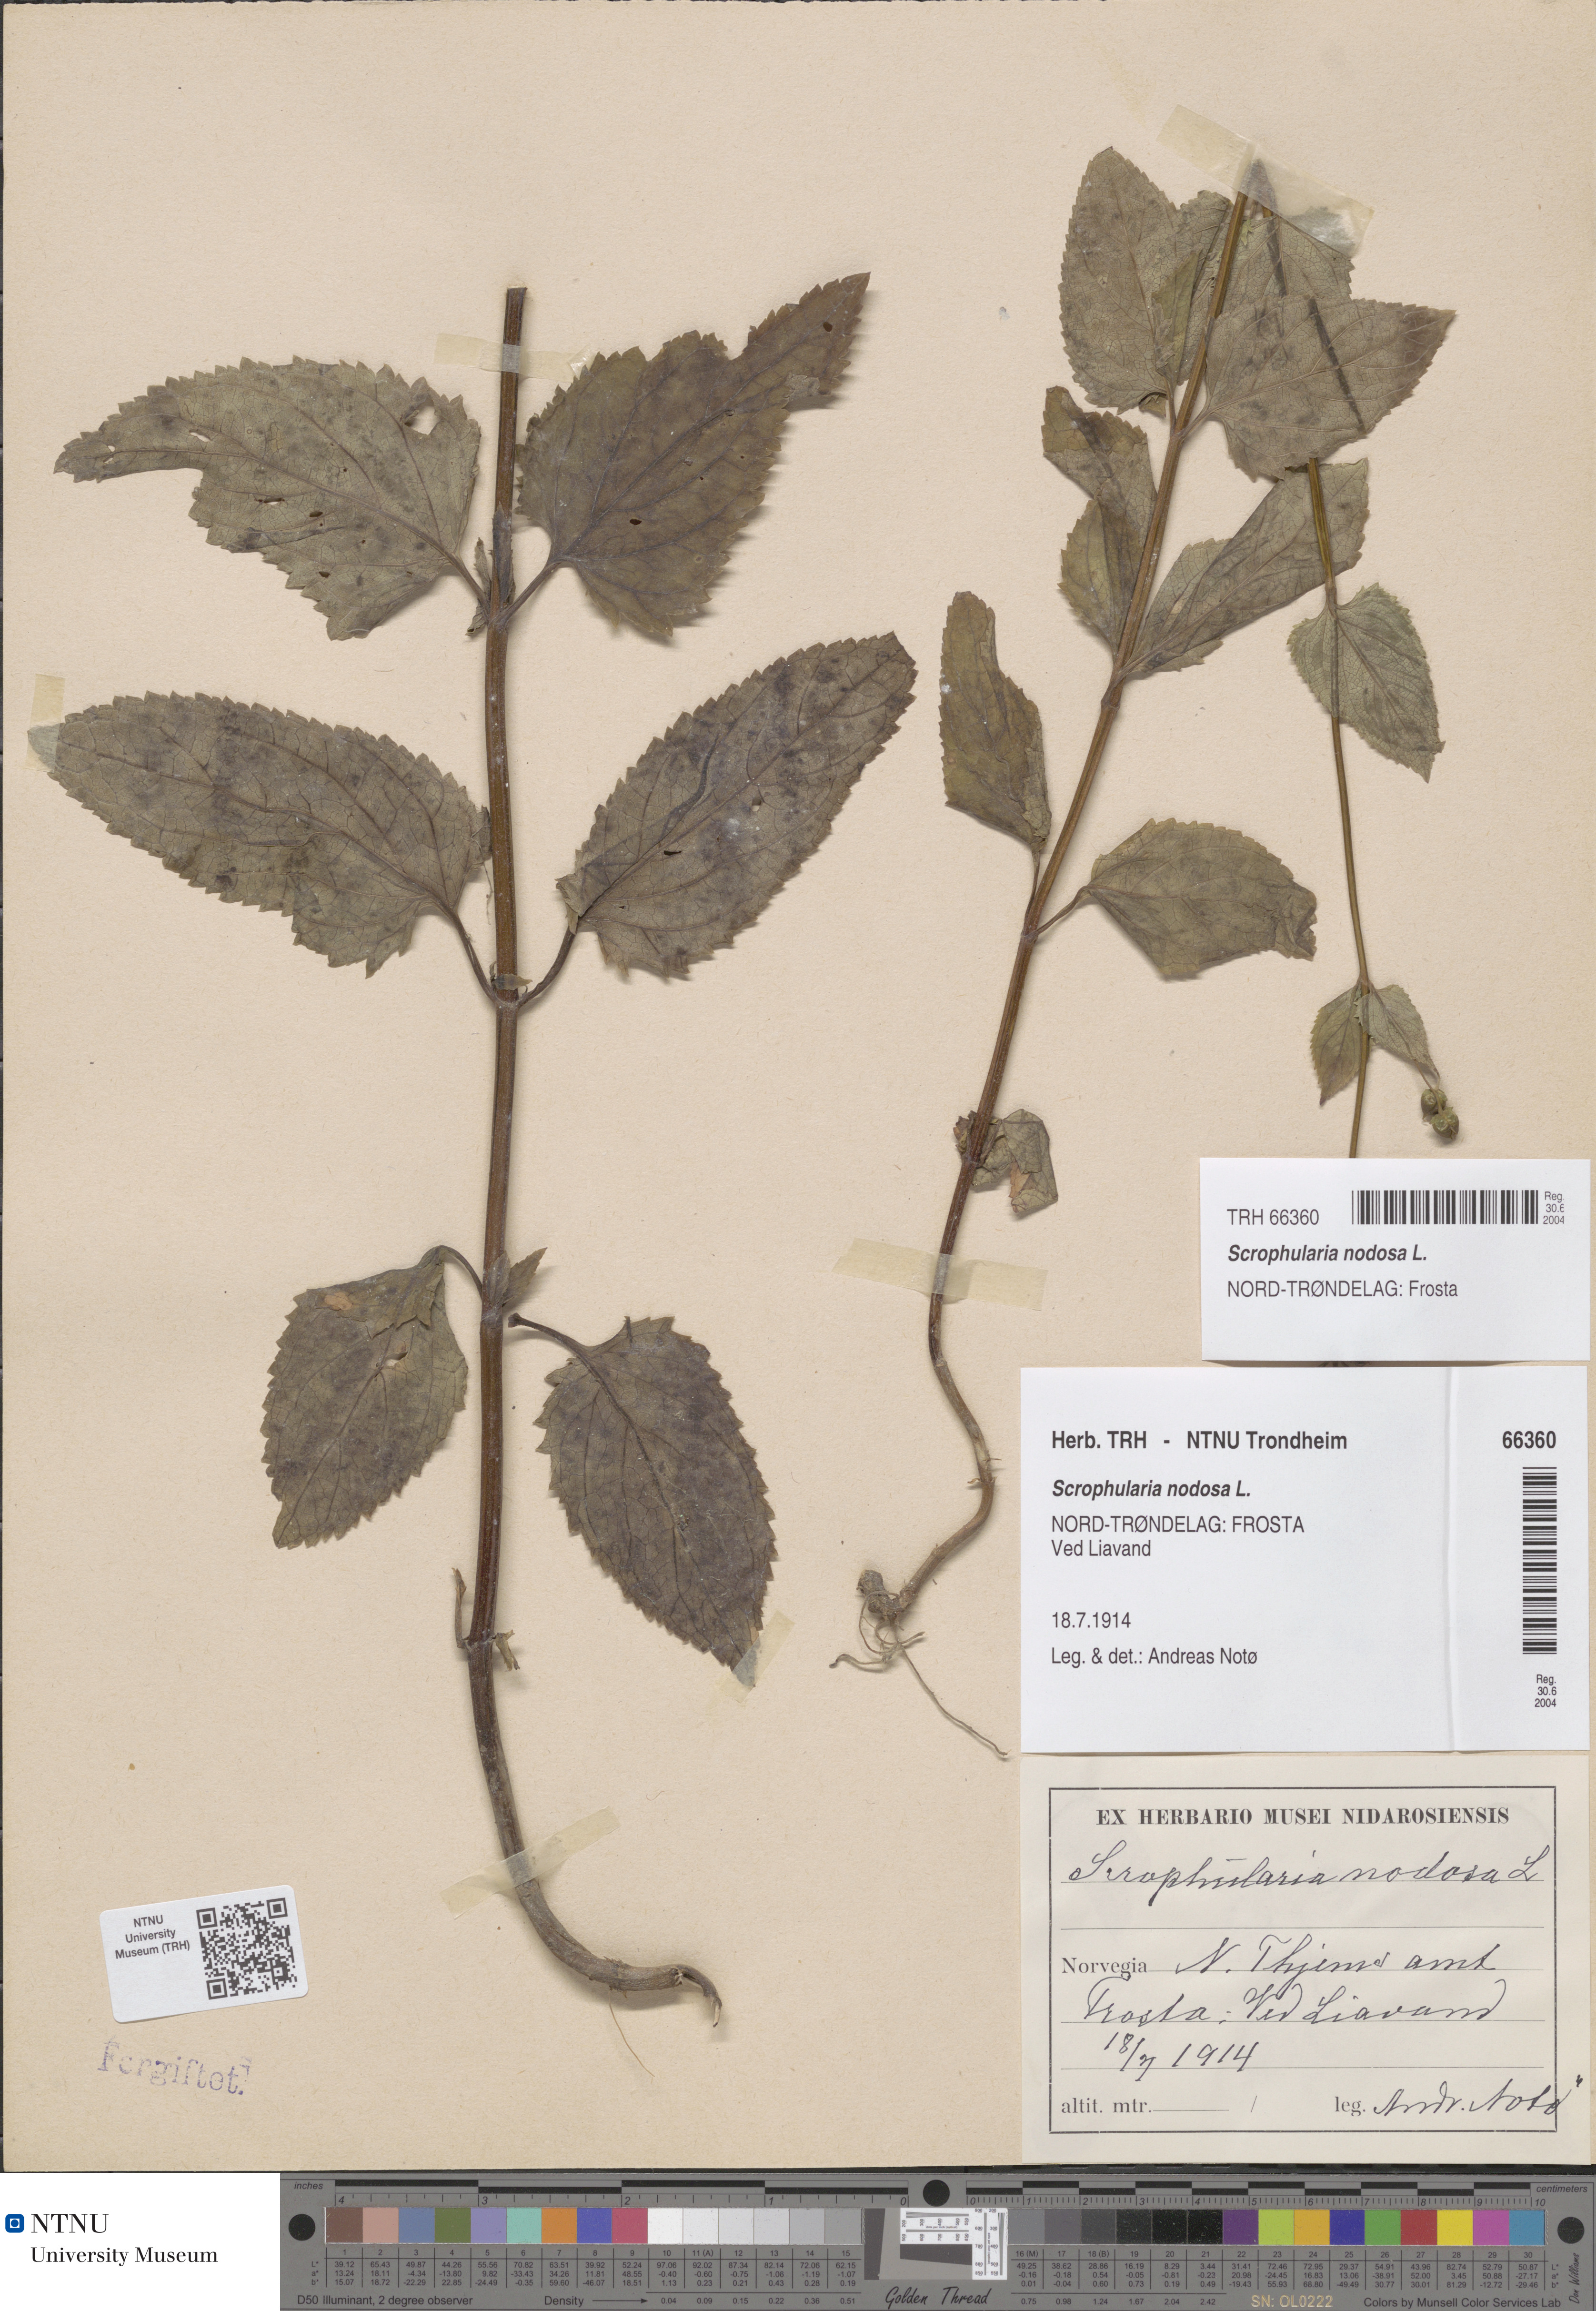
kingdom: Plantae
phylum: Tracheophyta
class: Magnoliopsida
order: Lamiales
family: Scrophulariaceae
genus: Scrophularia
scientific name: Scrophularia nodosa
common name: Common figwort
